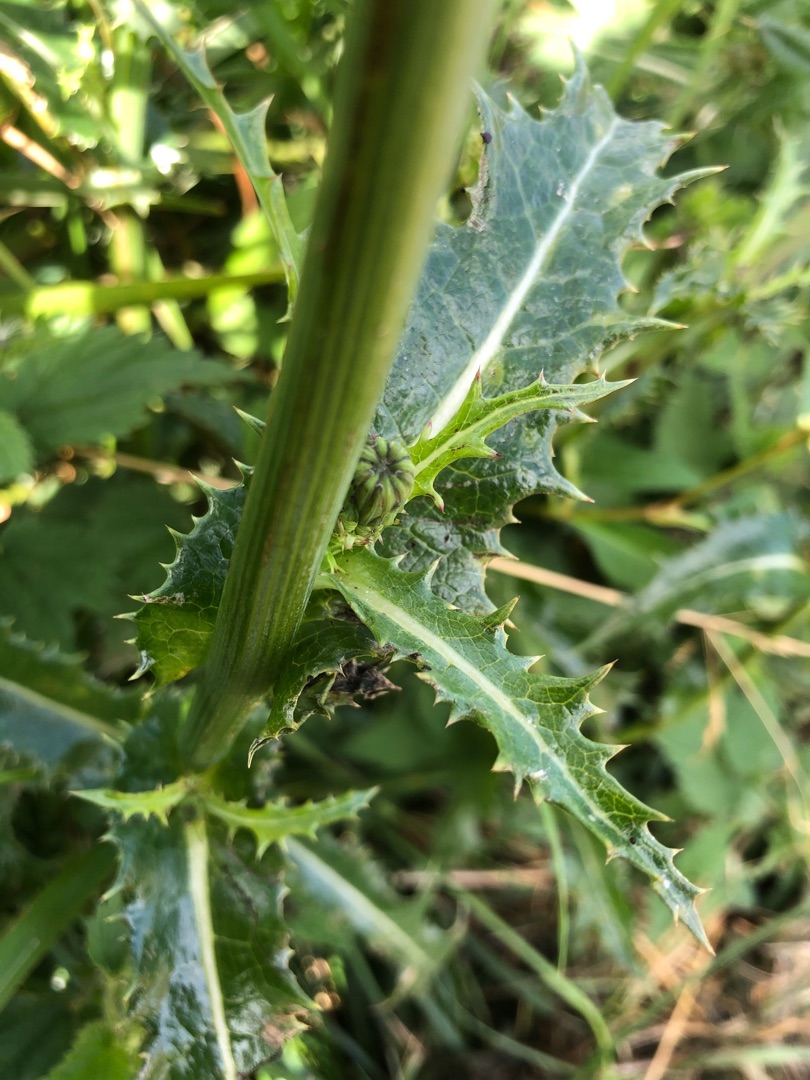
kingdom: Plantae
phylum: Tracheophyta
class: Magnoliopsida
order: Asterales
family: Asteraceae
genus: Sonchus
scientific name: Sonchus asper
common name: Ru svinemælk
